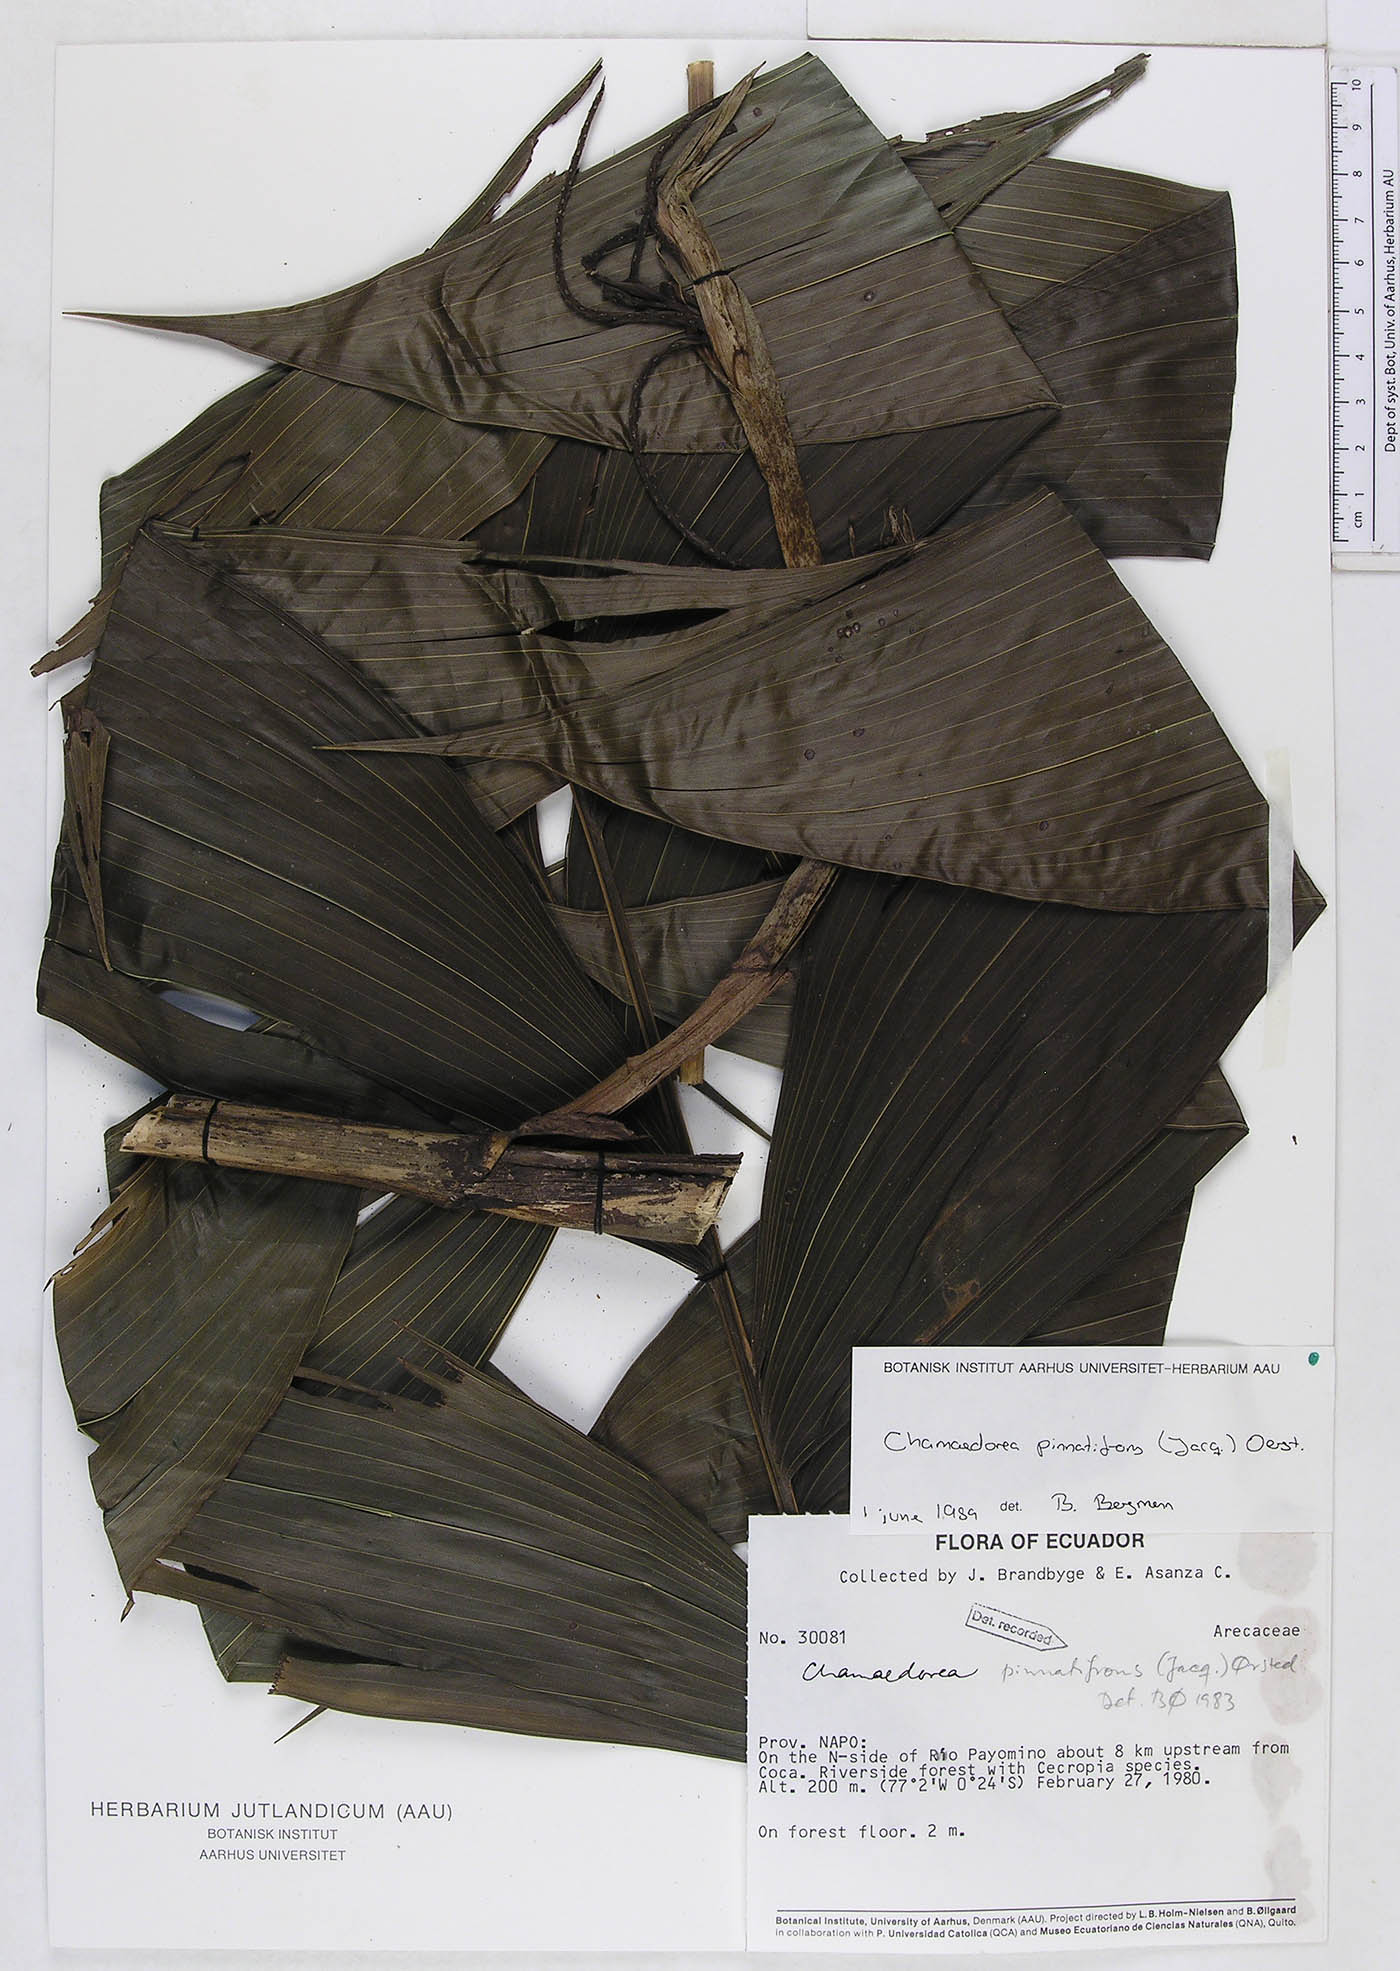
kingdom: Plantae
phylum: Tracheophyta
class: Liliopsida
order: Arecales
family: Arecaceae
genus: Chamaedorea
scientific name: Chamaedorea pinnatifrons
